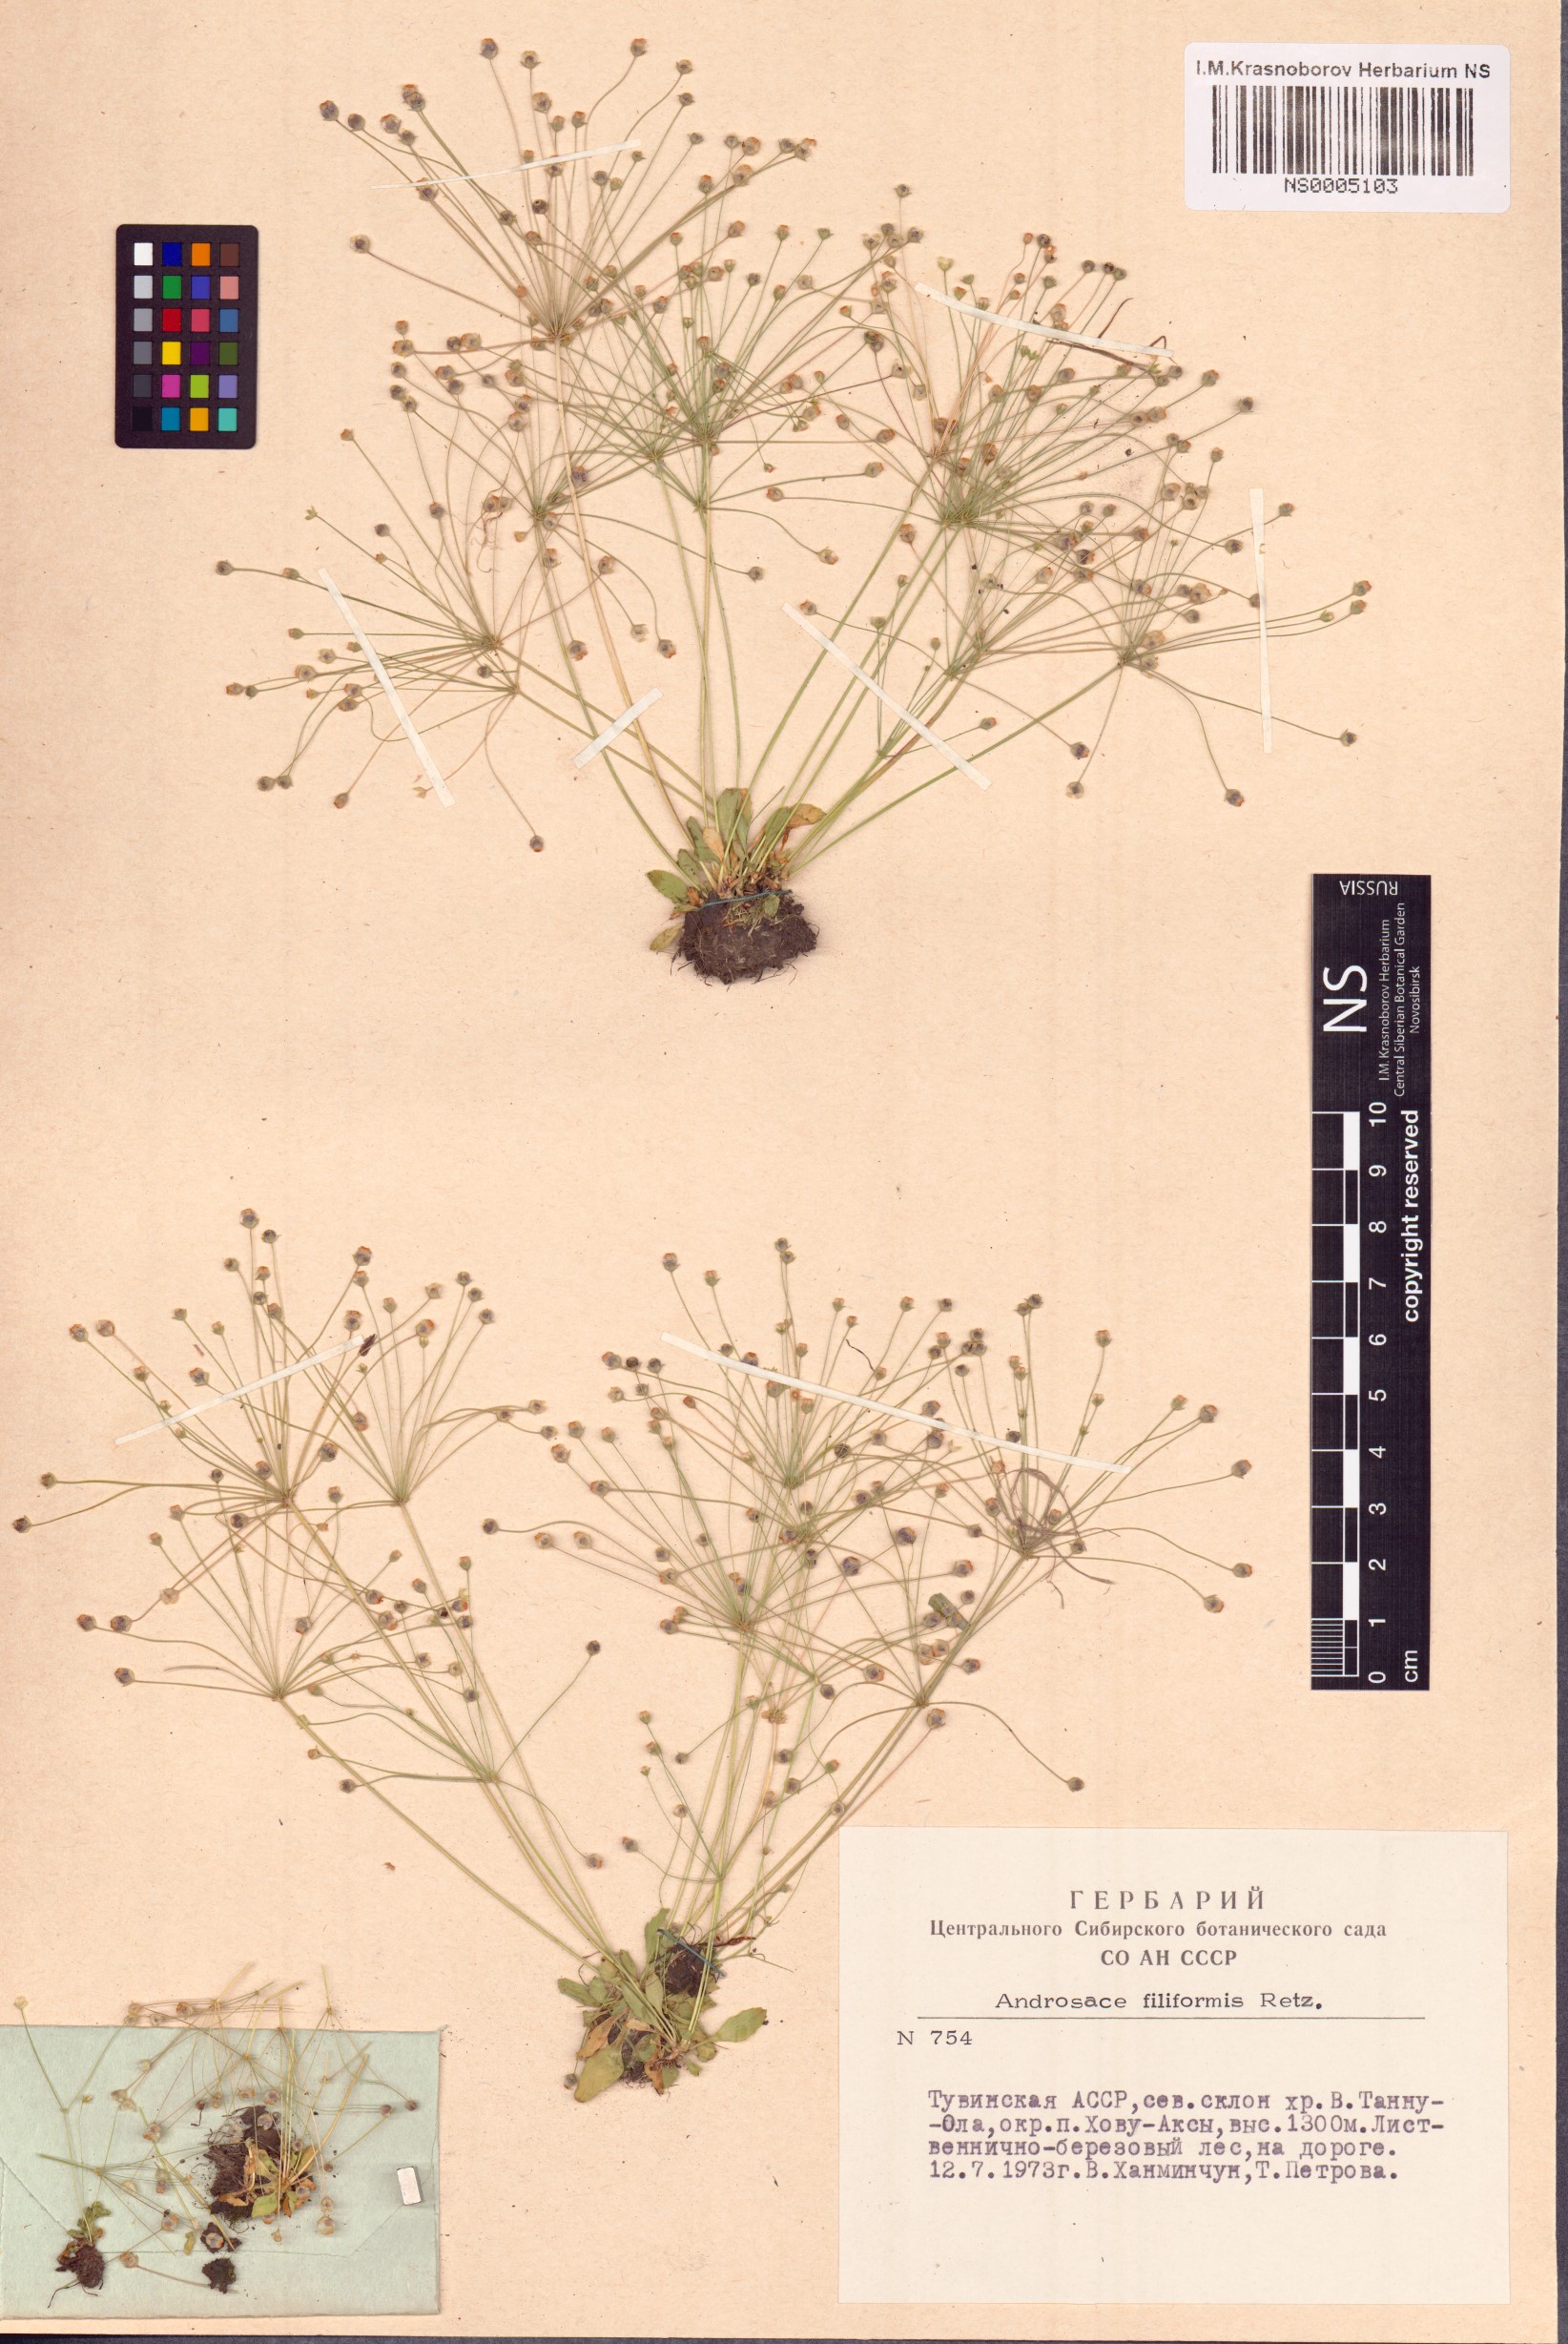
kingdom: Plantae
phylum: Tracheophyta
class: Magnoliopsida
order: Ericales
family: Primulaceae
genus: Androsace
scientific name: Androsace filiformis
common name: Filiform rock jasmine
